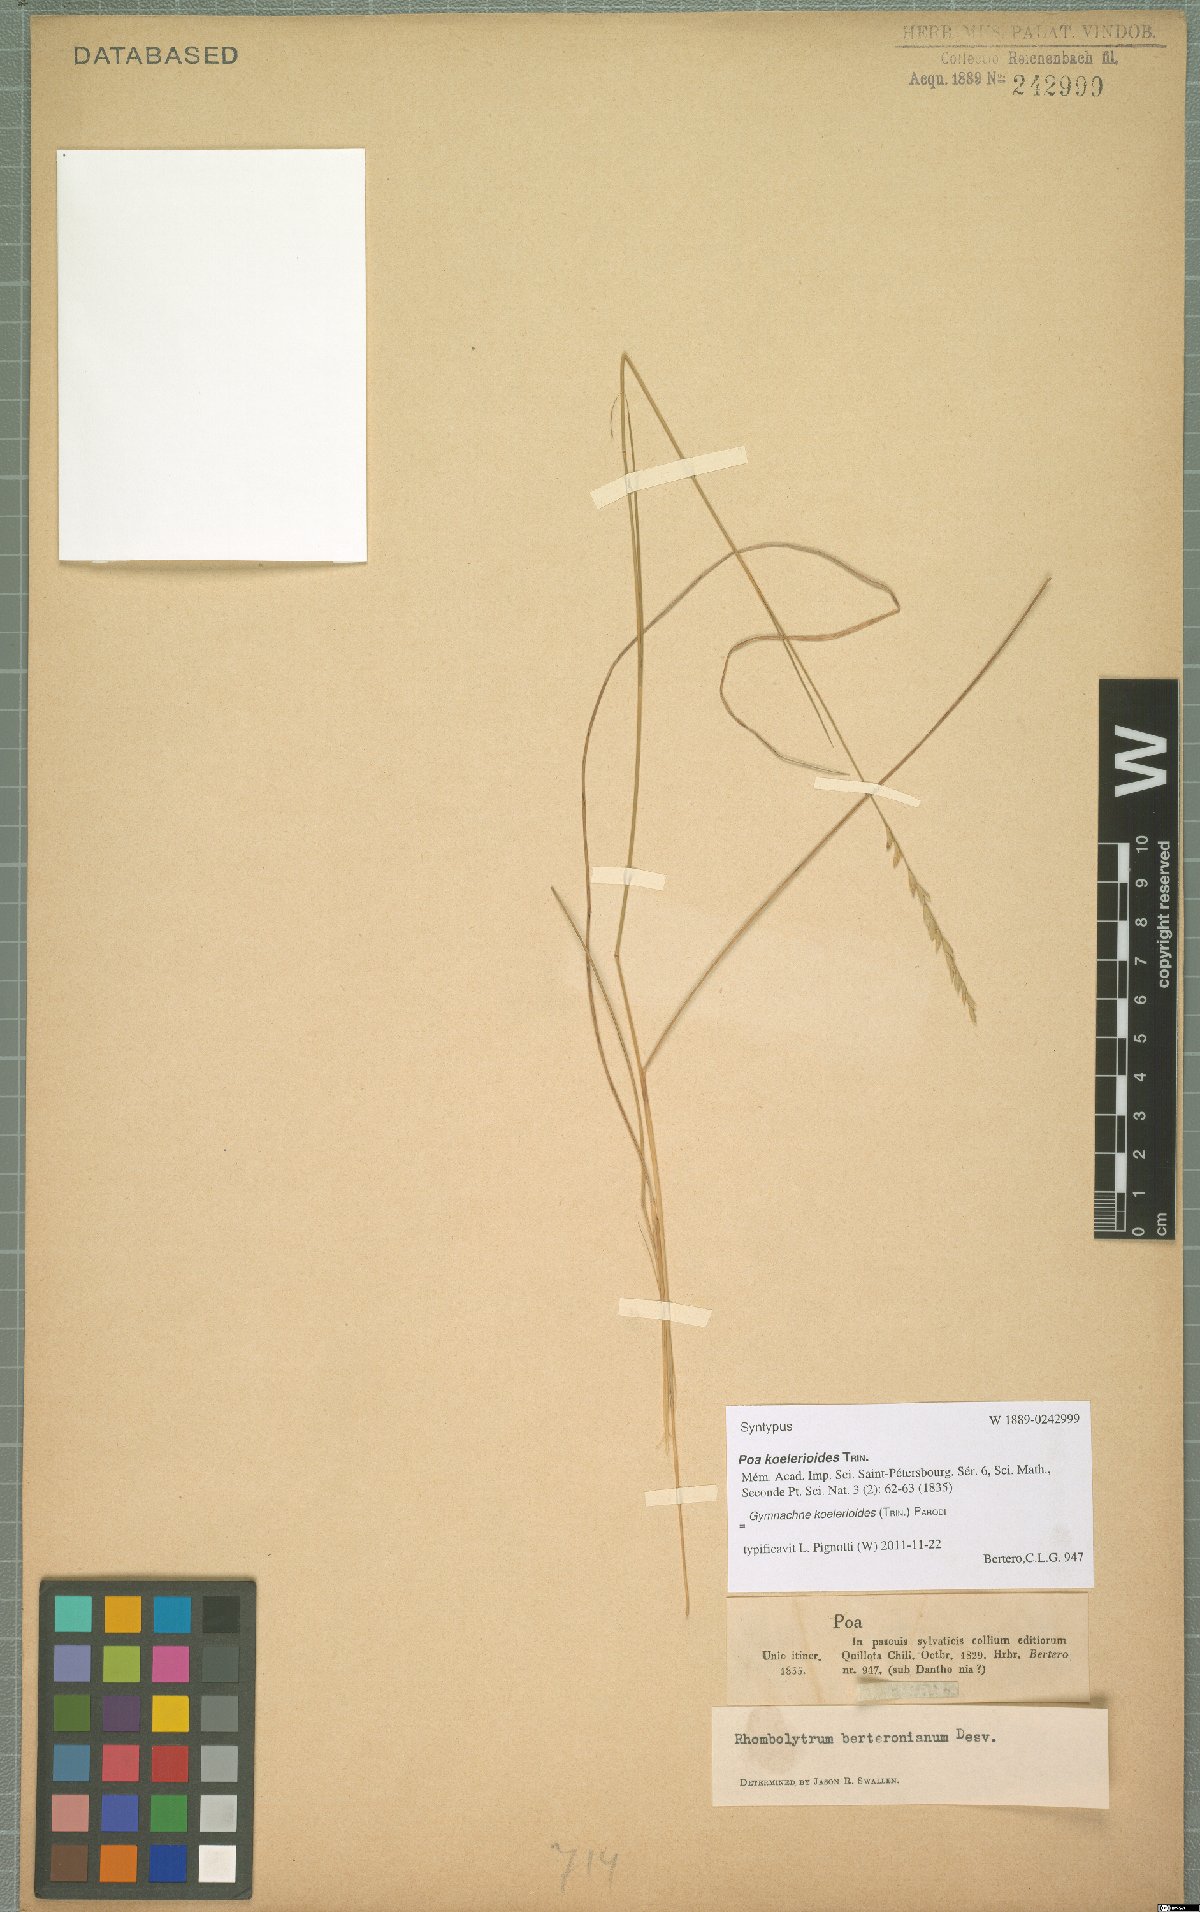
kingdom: Plantae
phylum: Tracheophyta
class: Liliopsida
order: Poales
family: Poaceae
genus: Chascolytrum
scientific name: Chascolytrum koelerioides
